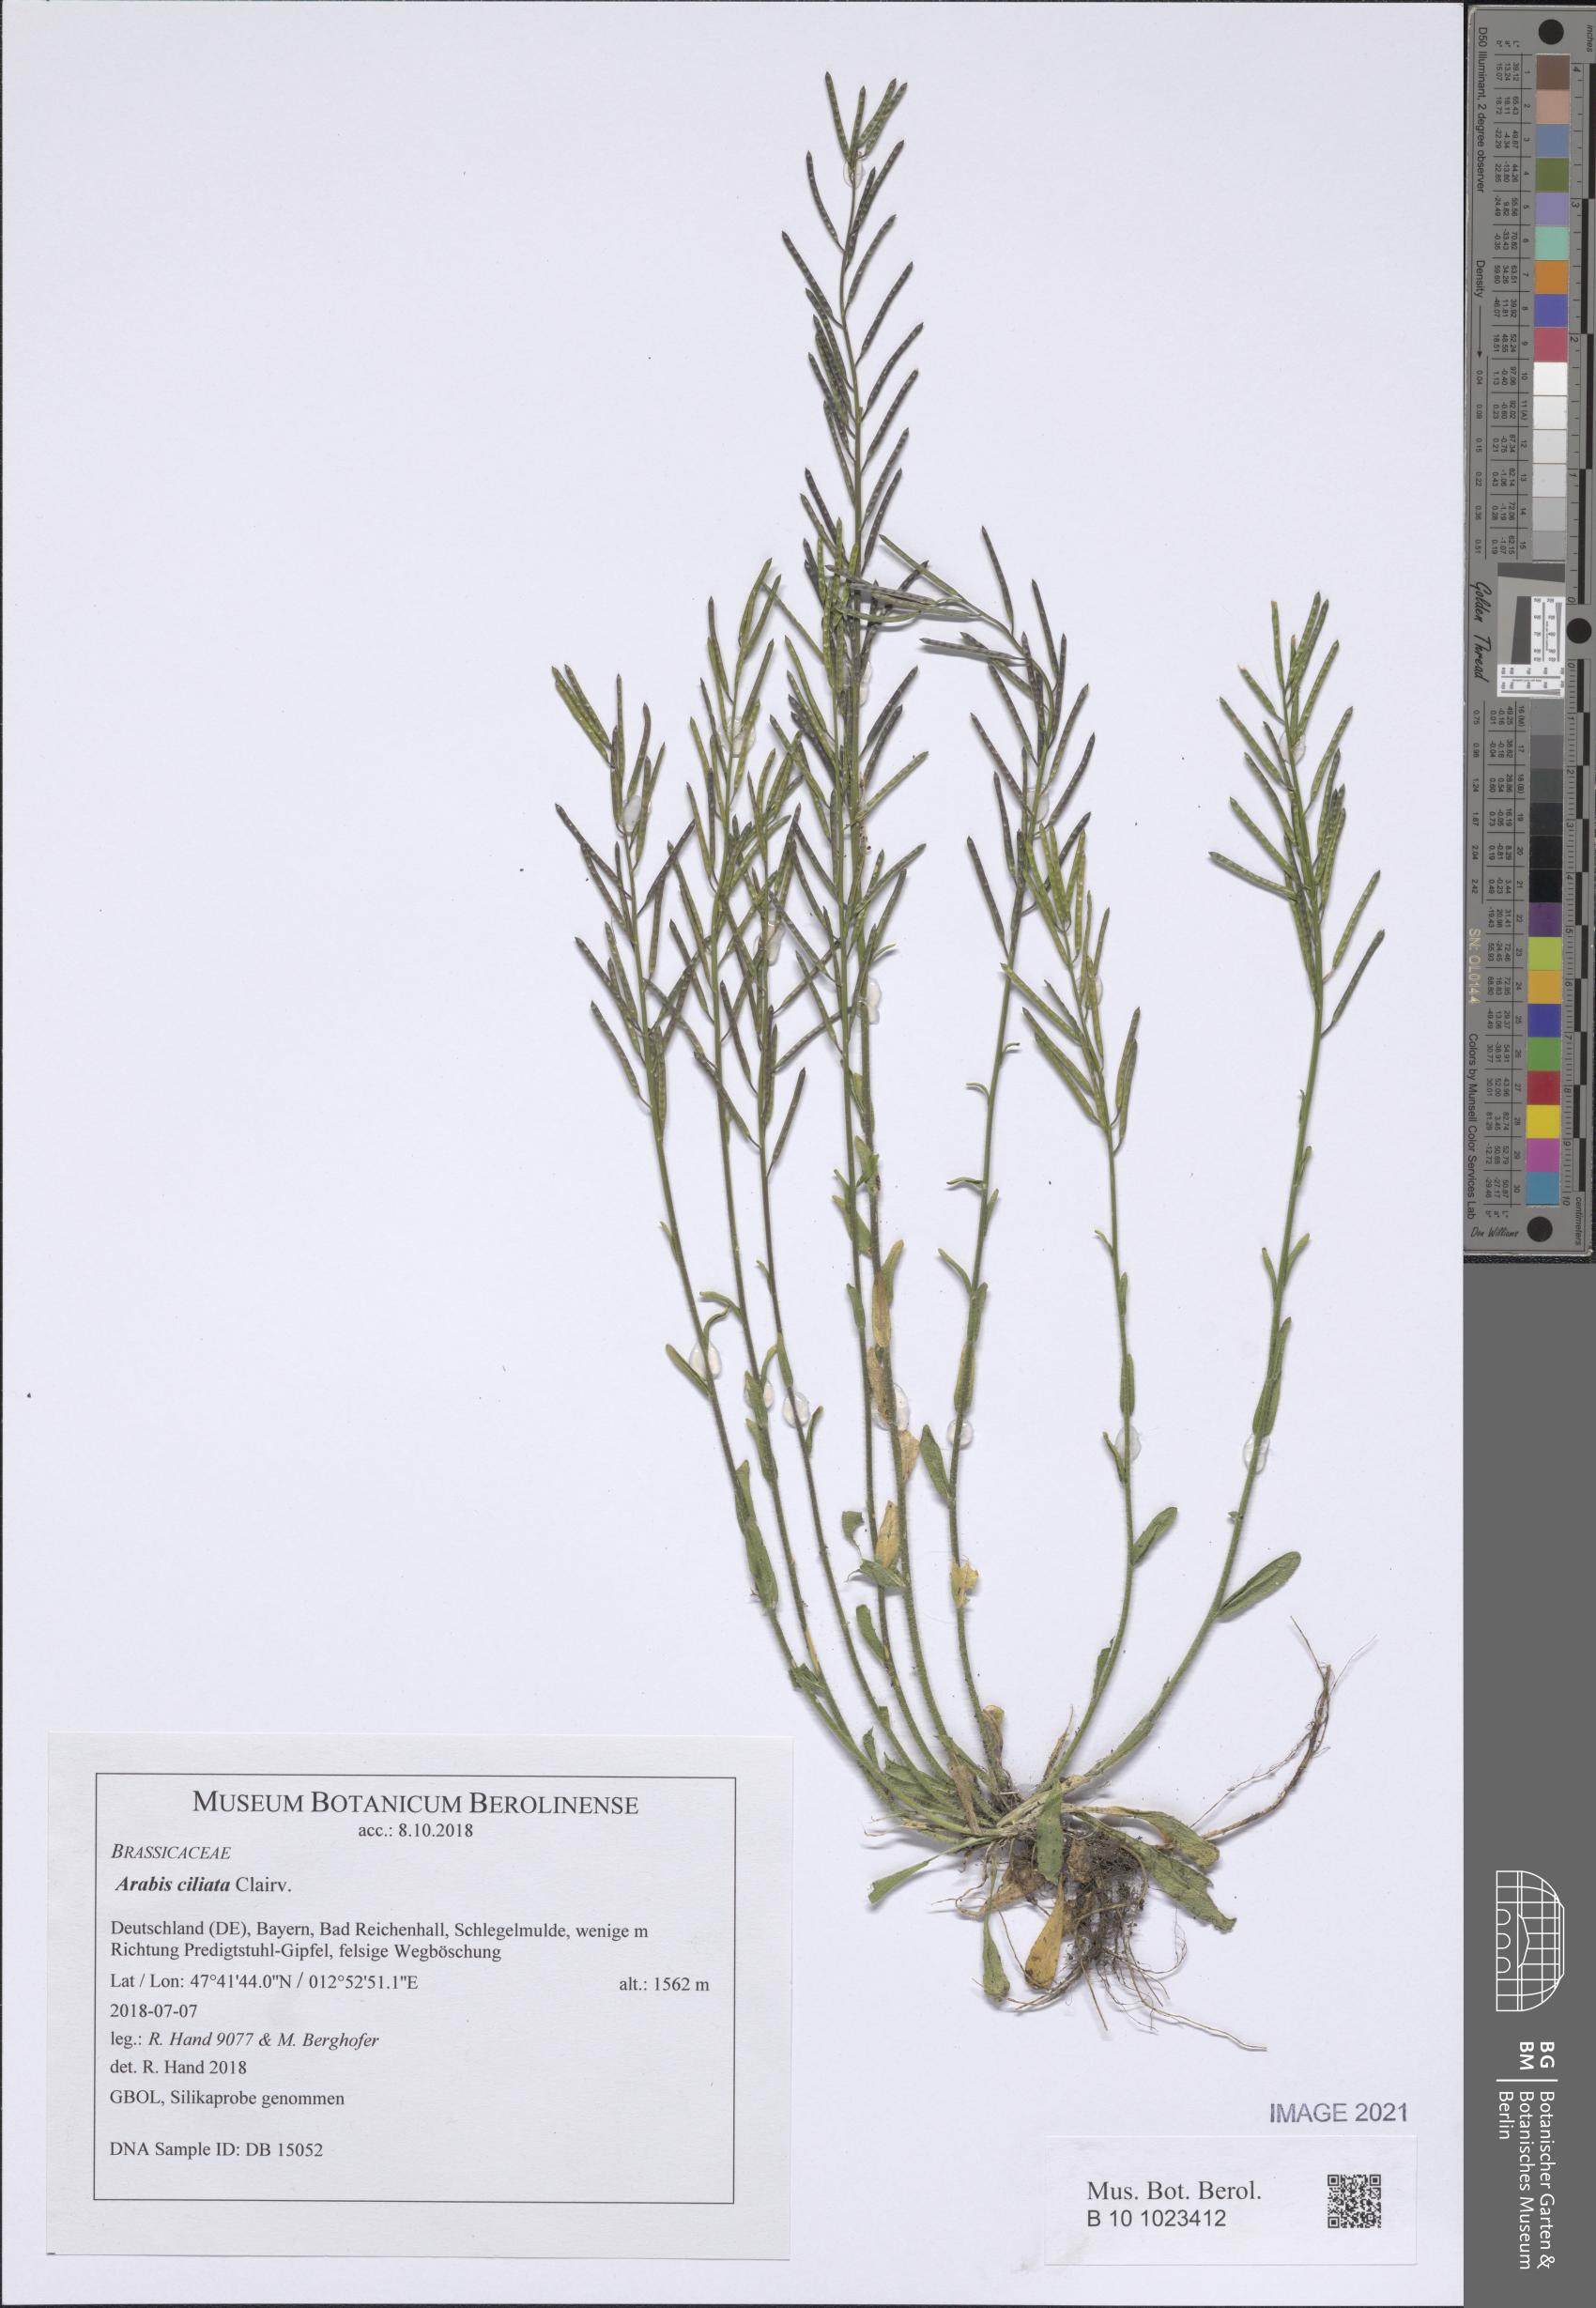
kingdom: Plantae
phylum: Tracheophyta
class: Magnoliopsida
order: Brassicales
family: Brassicaceae
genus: Arabis
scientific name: Arabis ciliata
